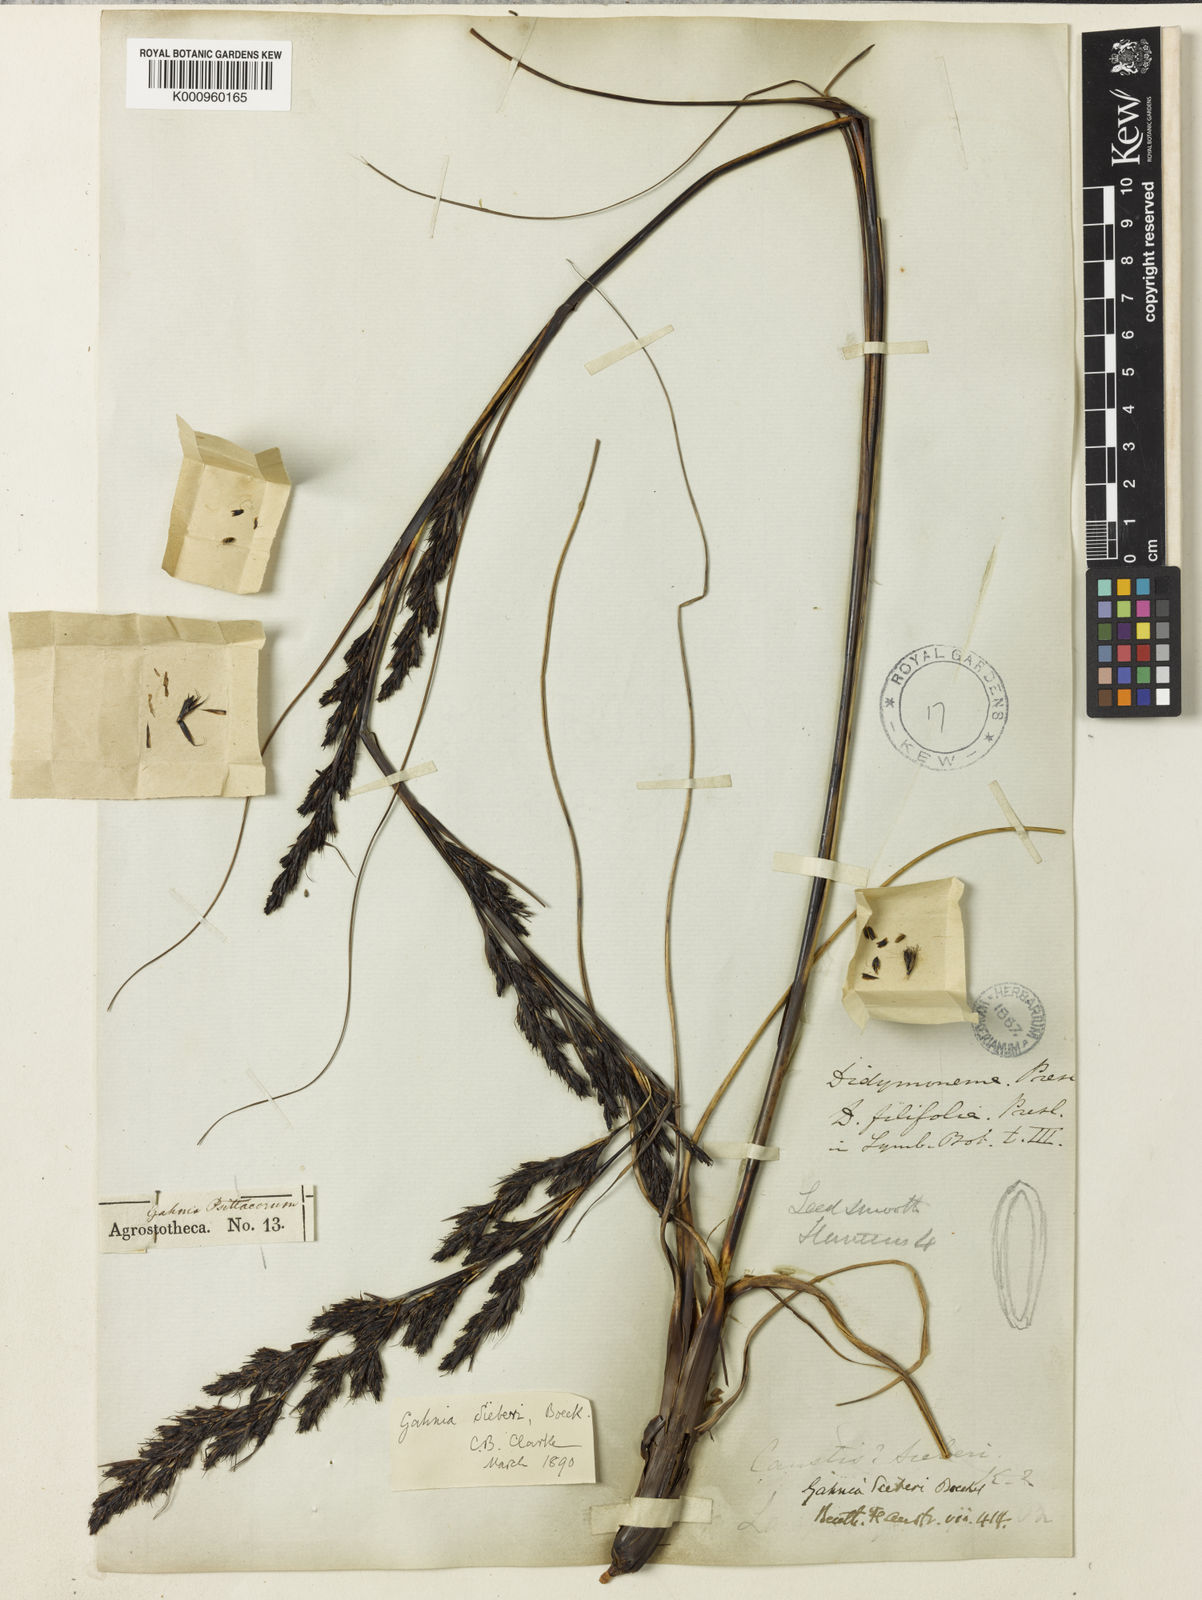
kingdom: Plantae
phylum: Tracheophyta
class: Liliopsida
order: Poales
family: Cyperaceae
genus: Gahnia
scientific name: Gahnia filifolia
